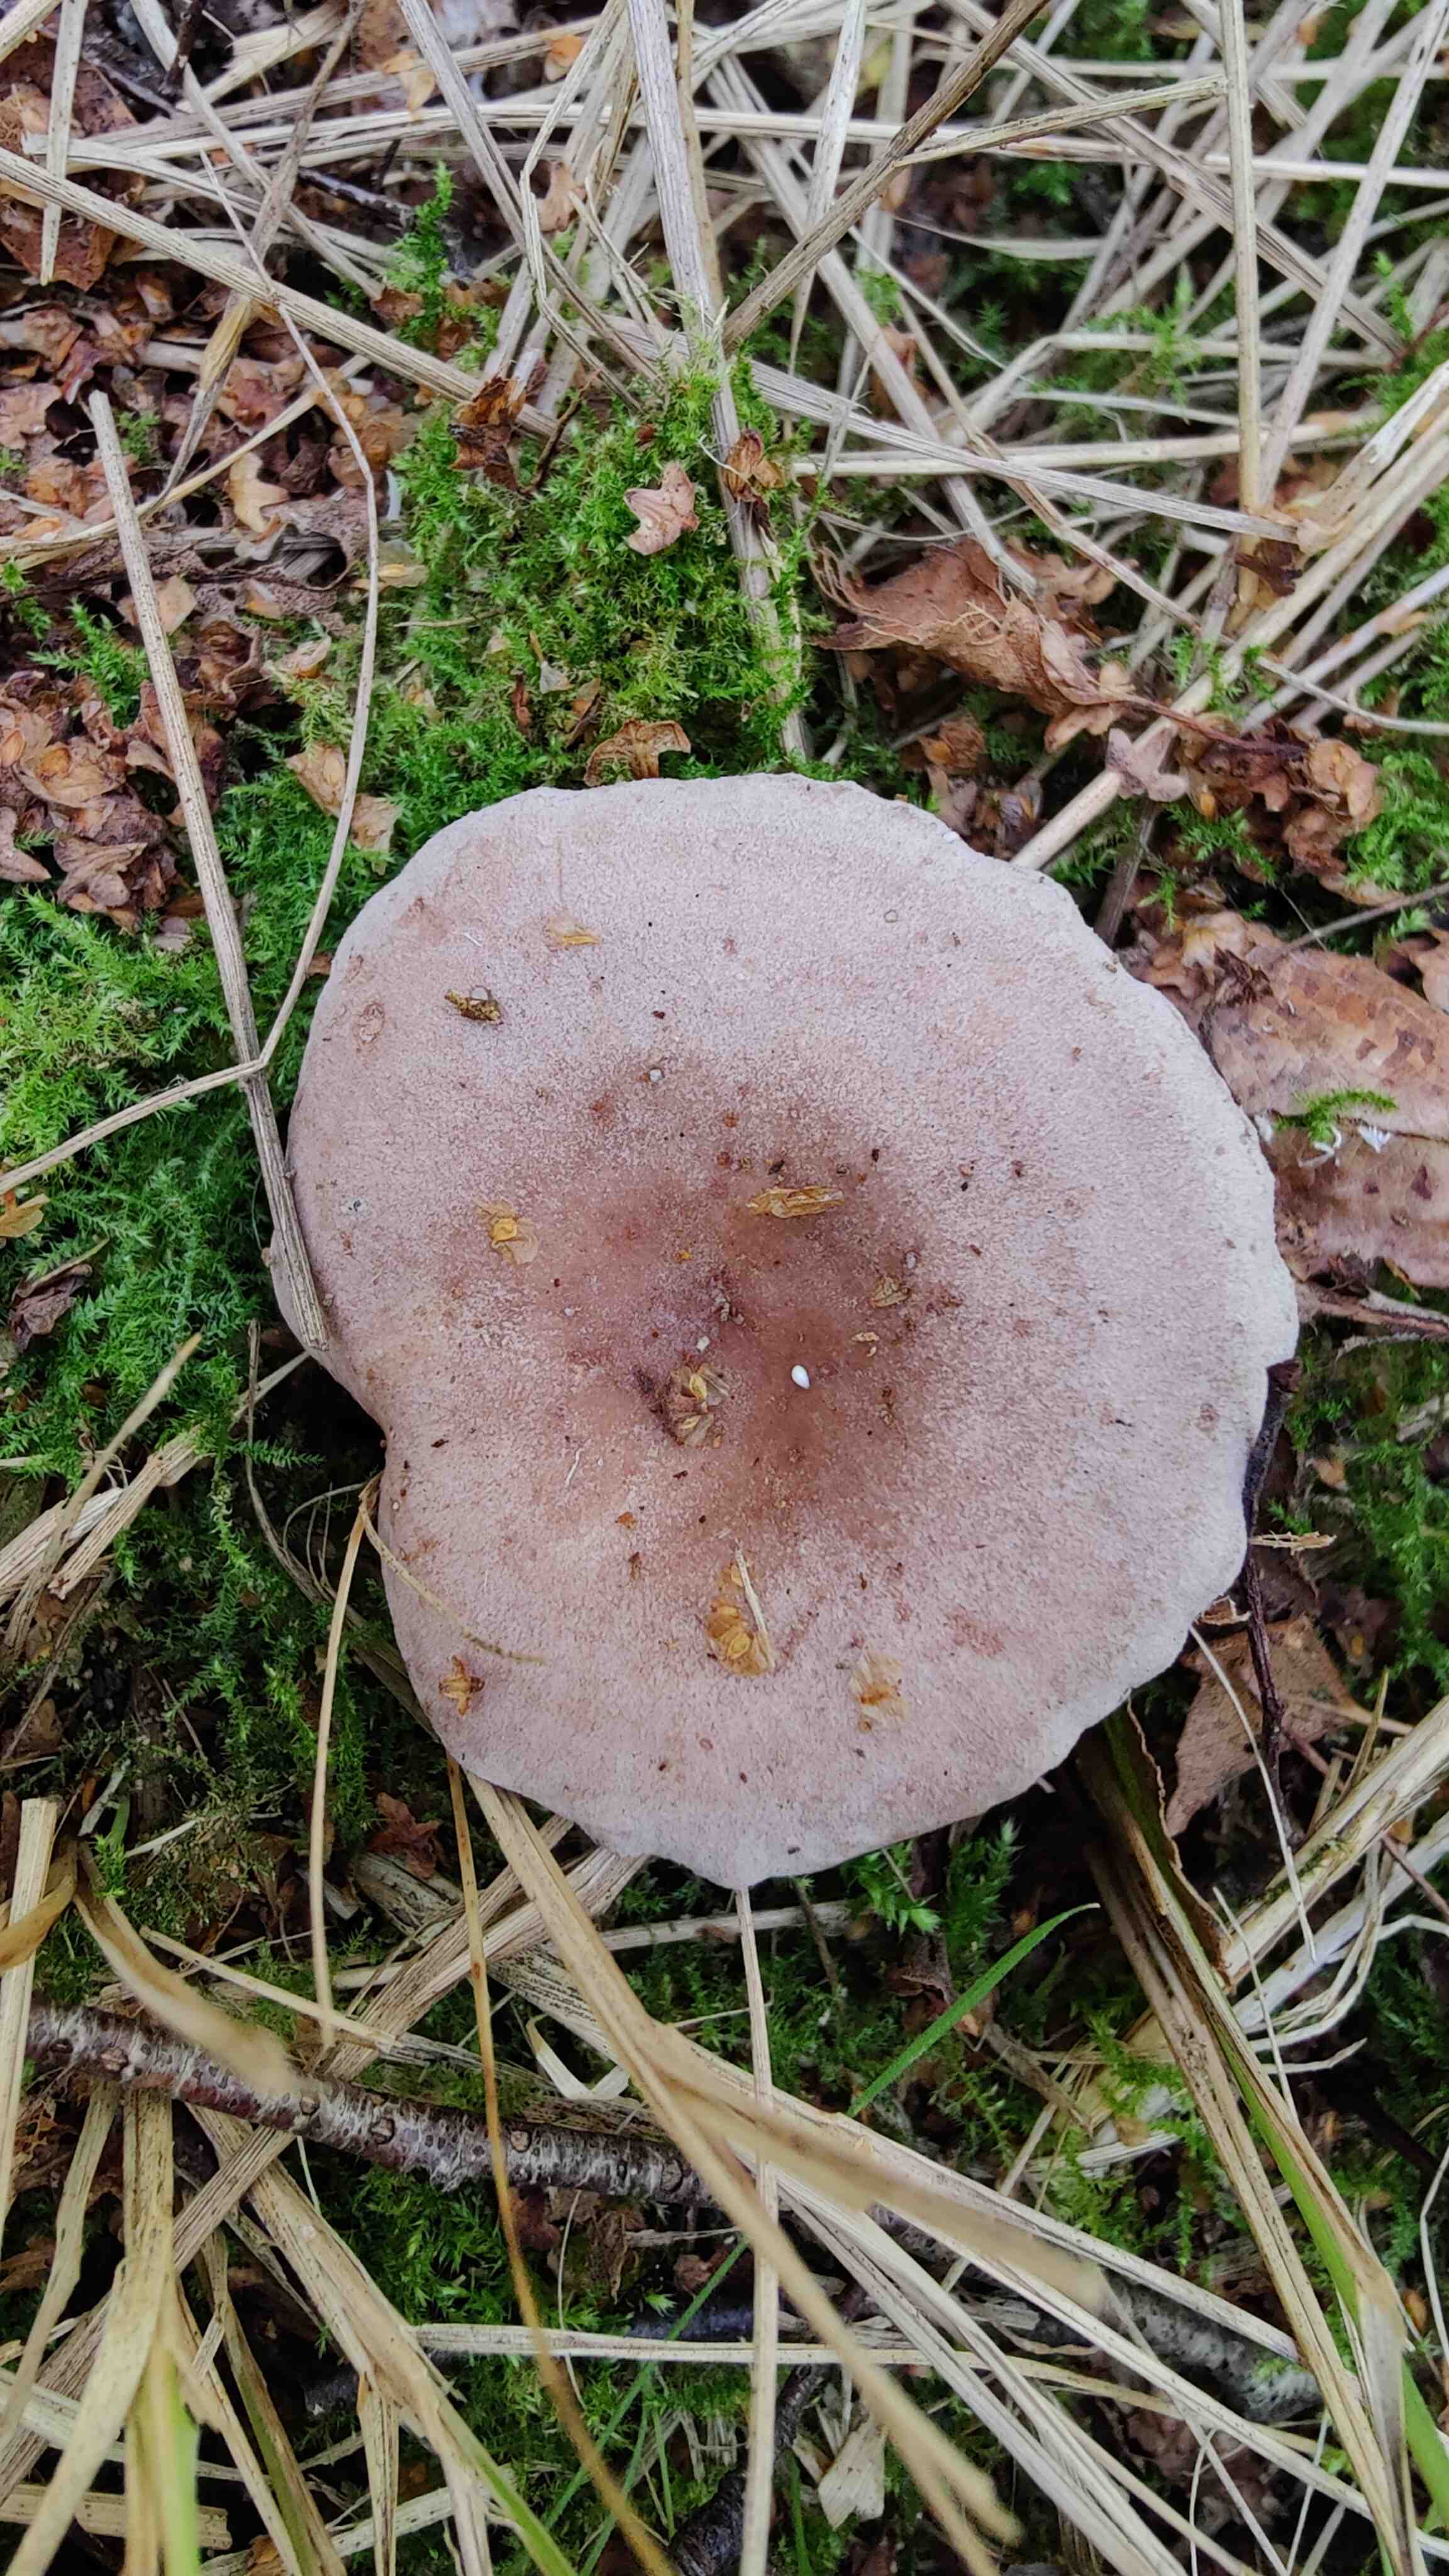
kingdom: Fungi
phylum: Basidiomycota
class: Agaricomycetes
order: Russulales
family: Russulaceae
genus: Lactarius
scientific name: Lactarius vietus
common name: violetgrå mælkehat
